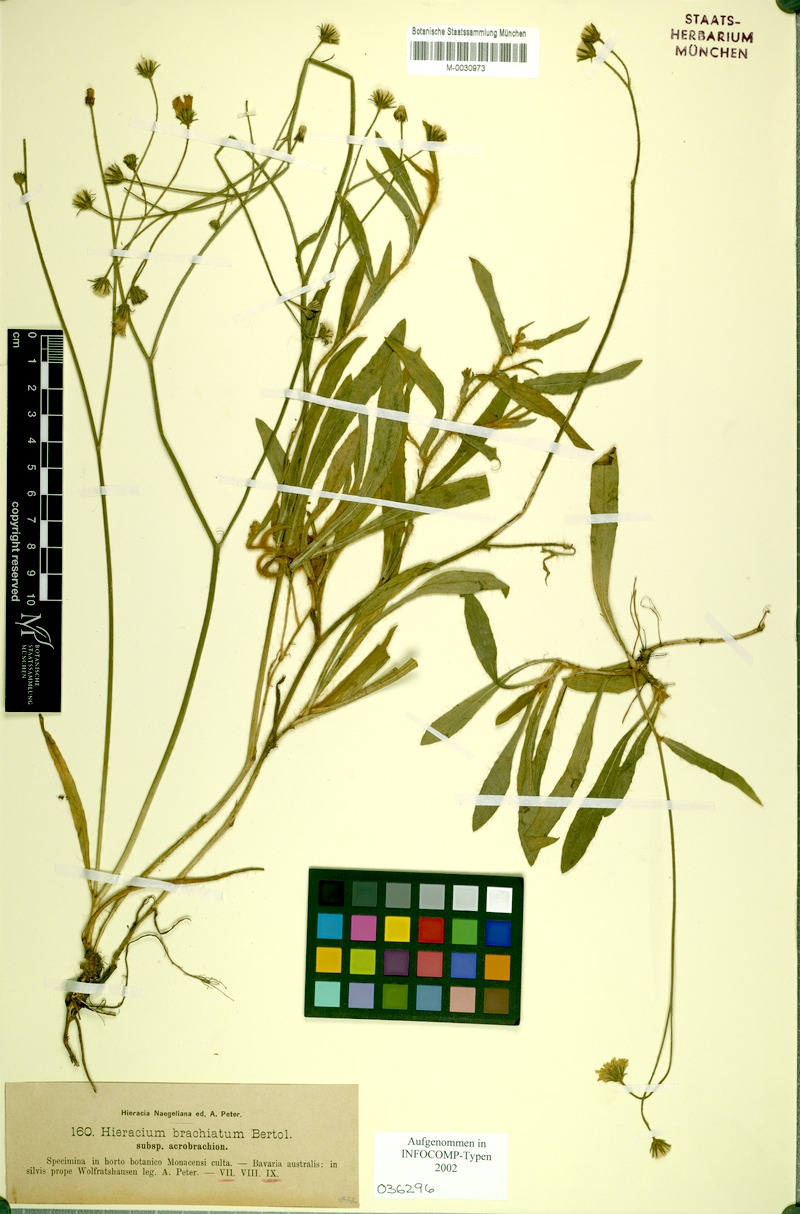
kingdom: Plantae
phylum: Tracheophyta
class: Magnoliopsida
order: Asterales
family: Asteraceae
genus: Pilosella
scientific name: Pilosella acutifolia
